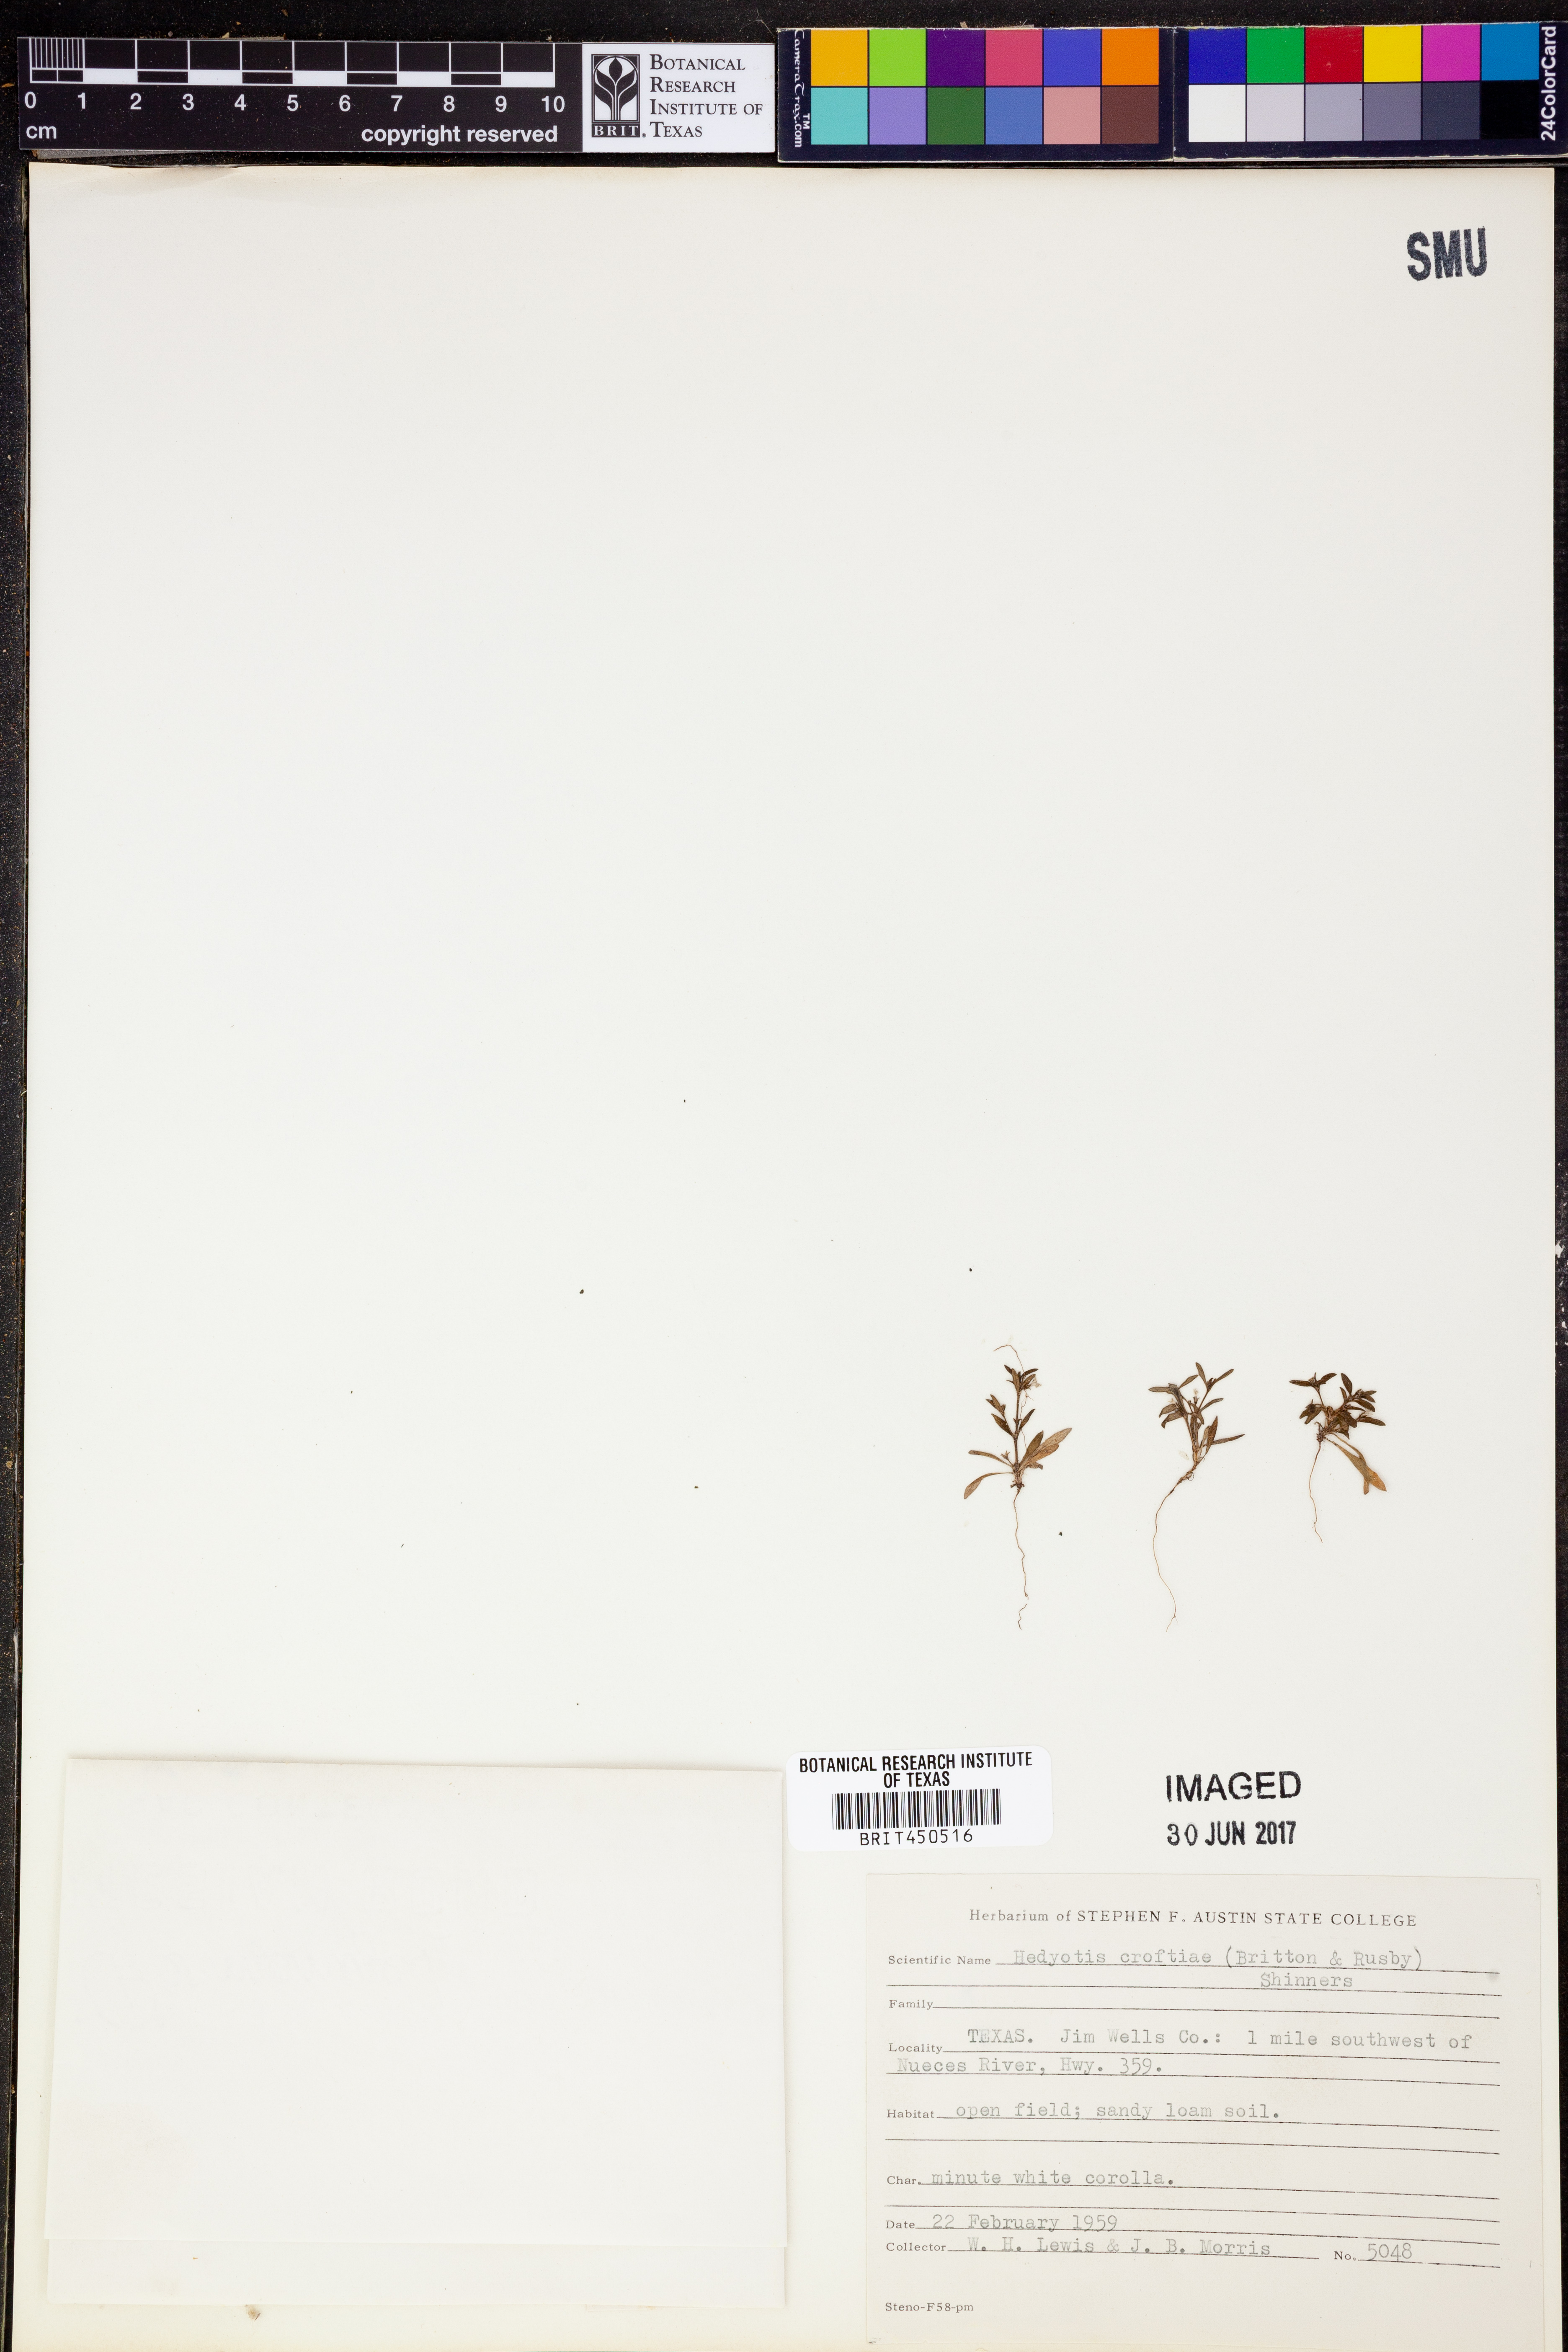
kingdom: Plantae
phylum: Tracheophyta
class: Magnoliopsida
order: Gentianales
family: Rubiaceae
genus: Houstonia
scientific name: Houstonia croftiae
